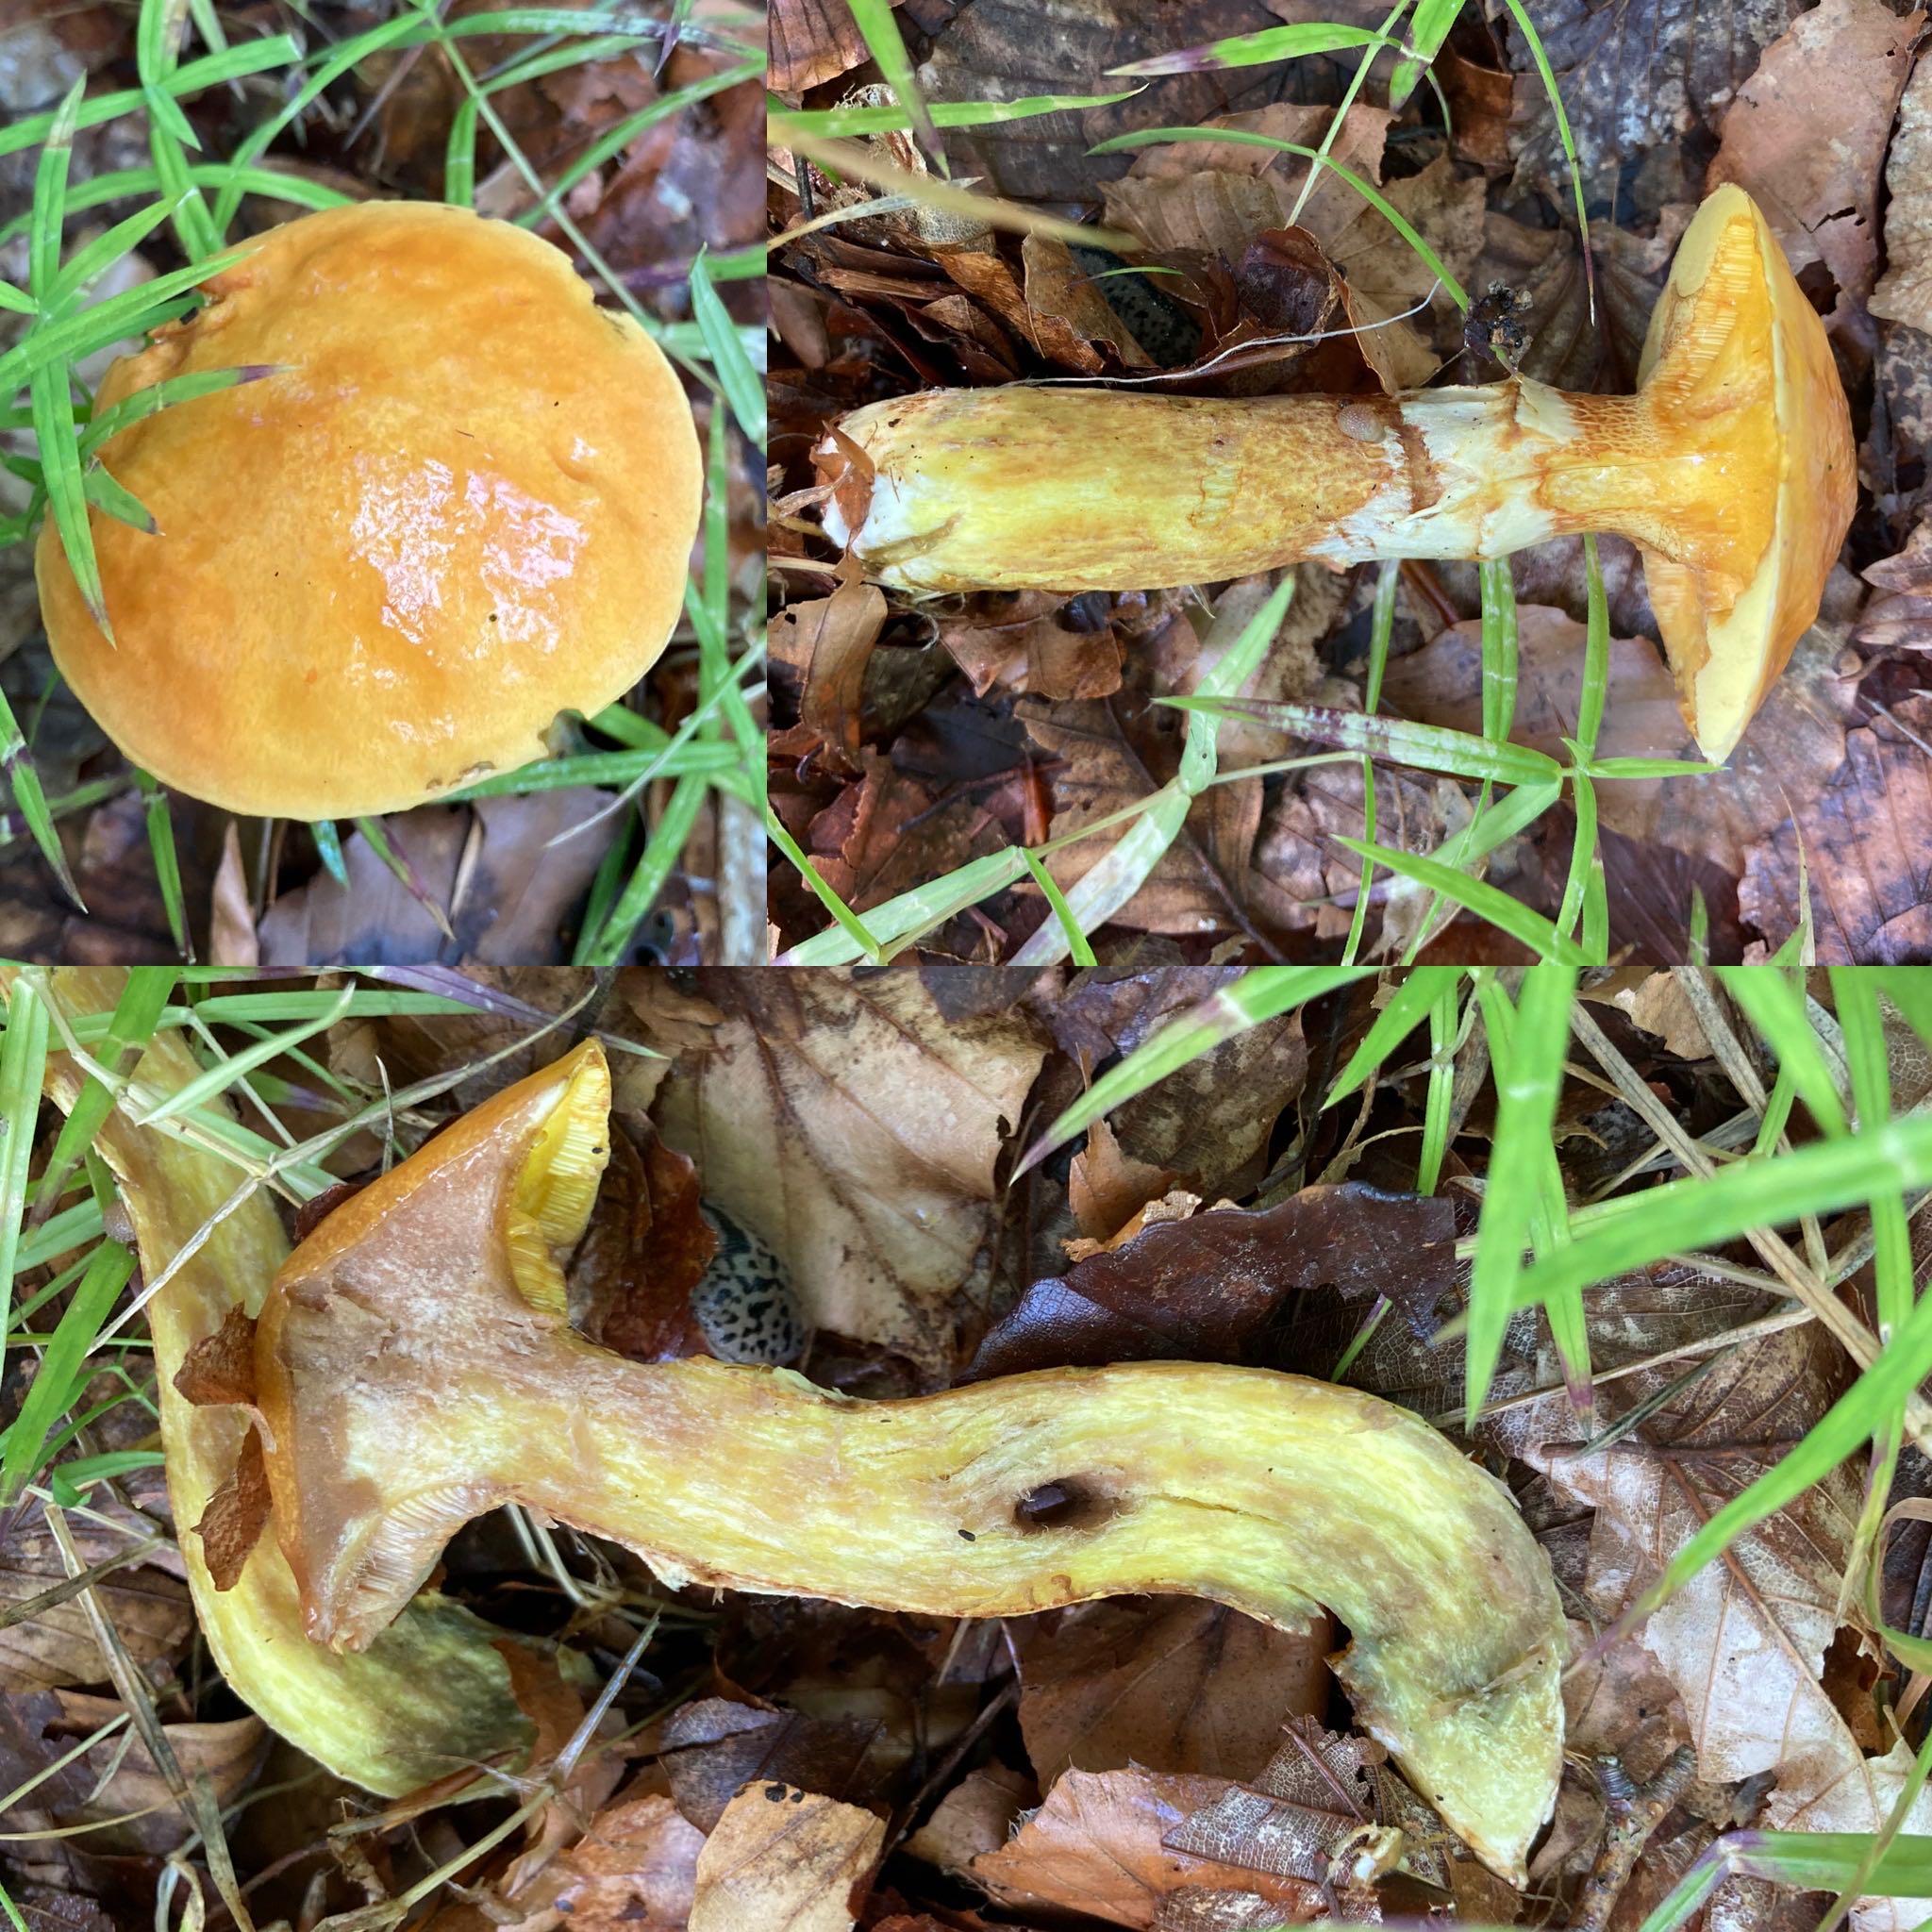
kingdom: Fungi
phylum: Basidiomycota
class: Agaricomycetes
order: Boletales
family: Suillaceae
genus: Suillus
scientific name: Suillus grevillei
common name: lærke-slimrørhat
